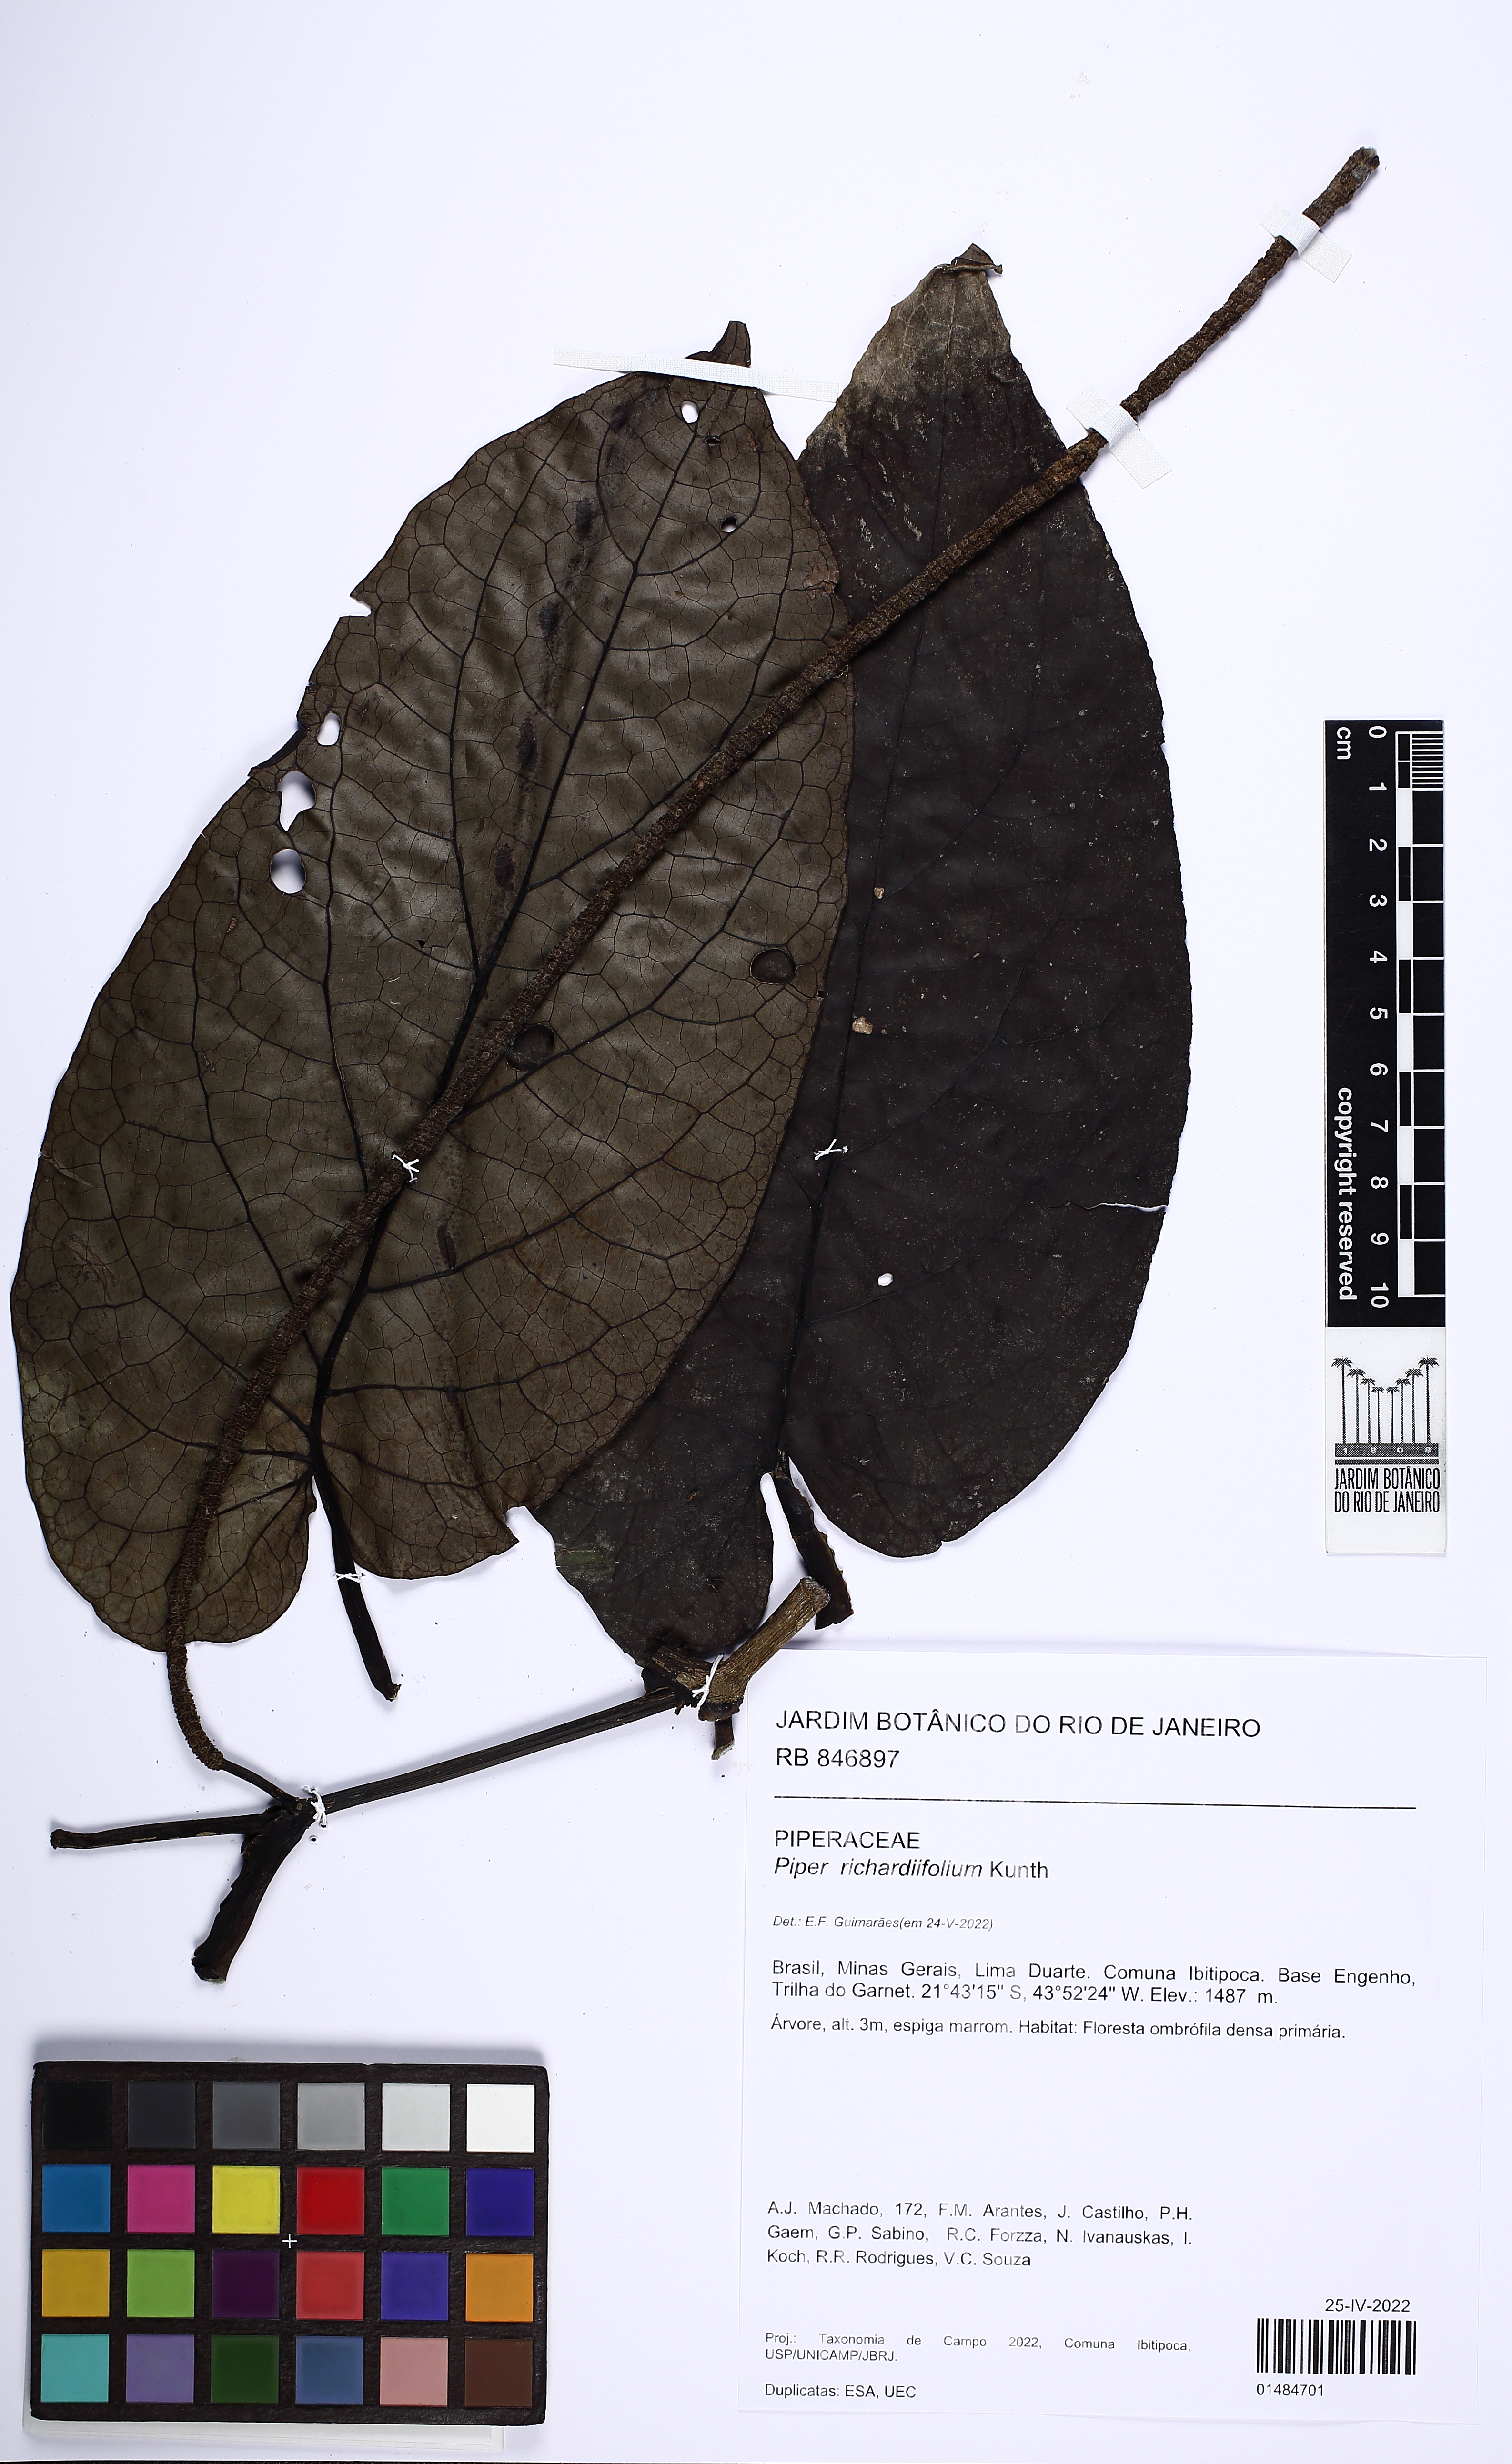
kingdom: Plantae
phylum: Tracheophyta
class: Magnoliopsida
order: Piperales
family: Piperaceae
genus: Piper
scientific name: Piper richardiifolium
